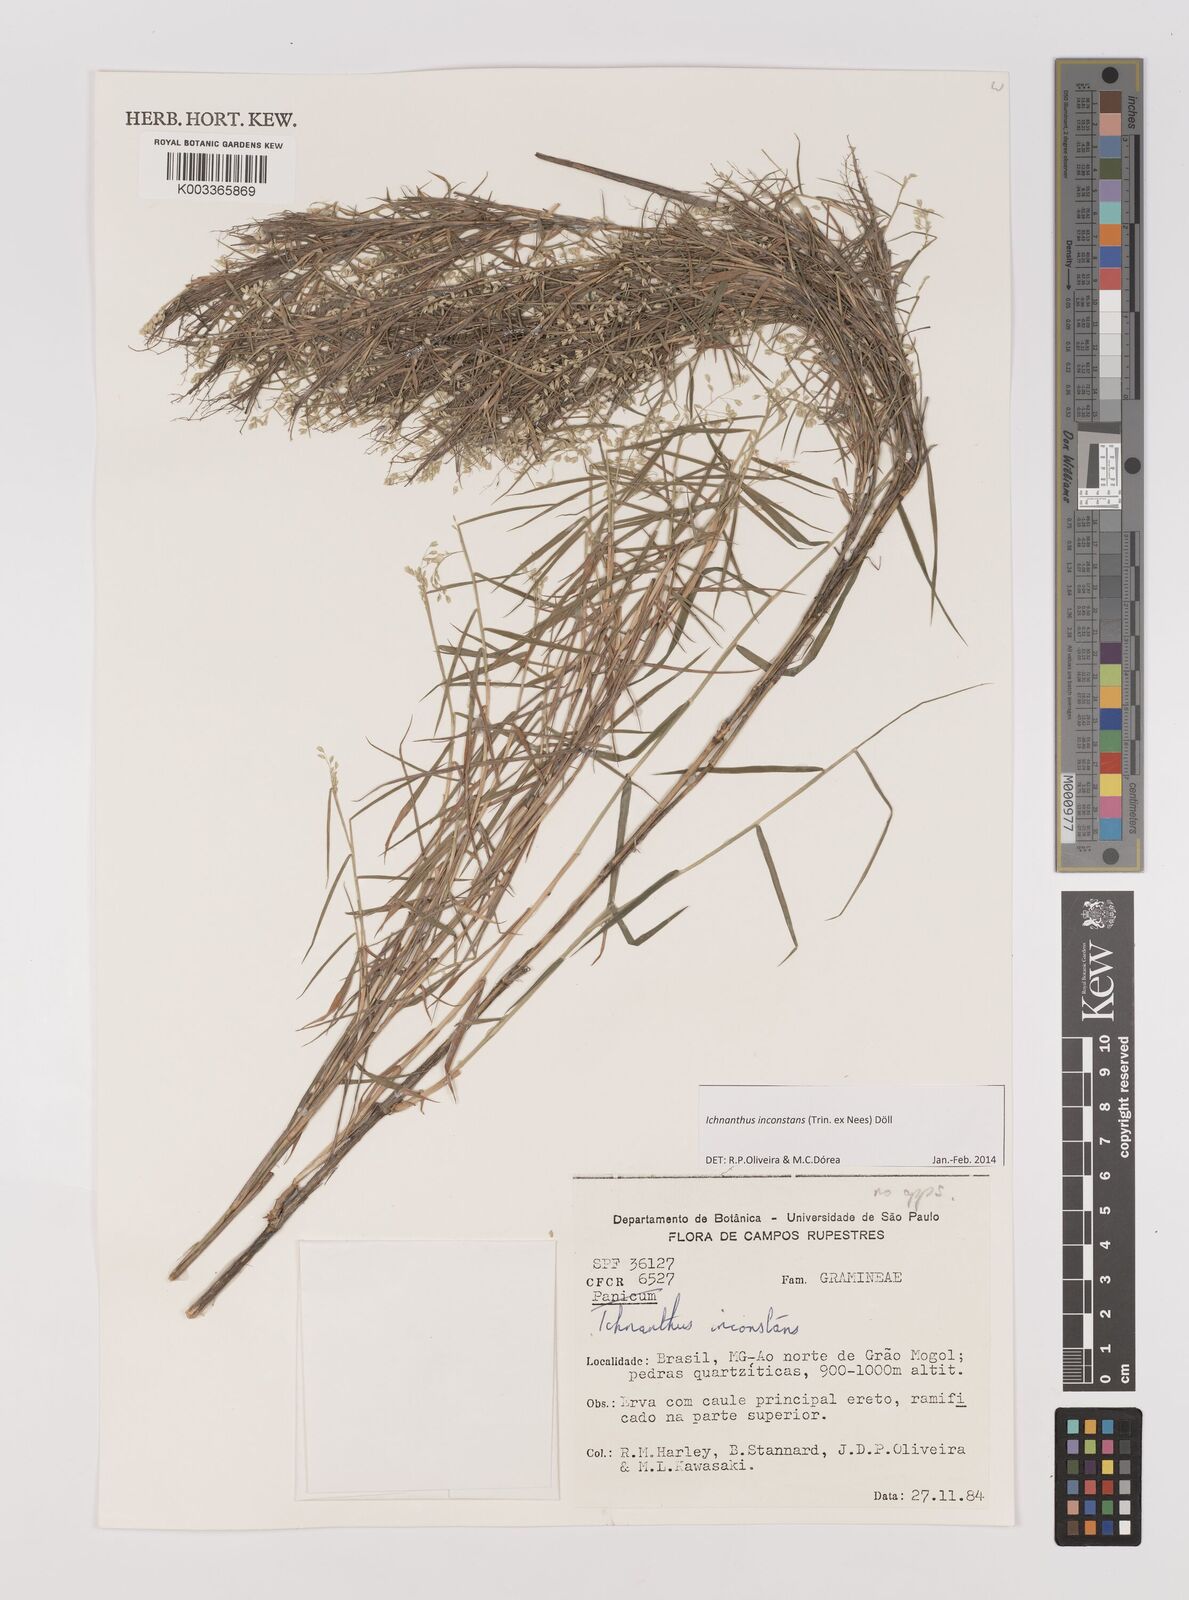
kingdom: Plantae
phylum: Tracheophyta
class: Liliopsida
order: Poales
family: Poaceae
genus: Ichnanthus
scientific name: Ichnanthus inconstans
